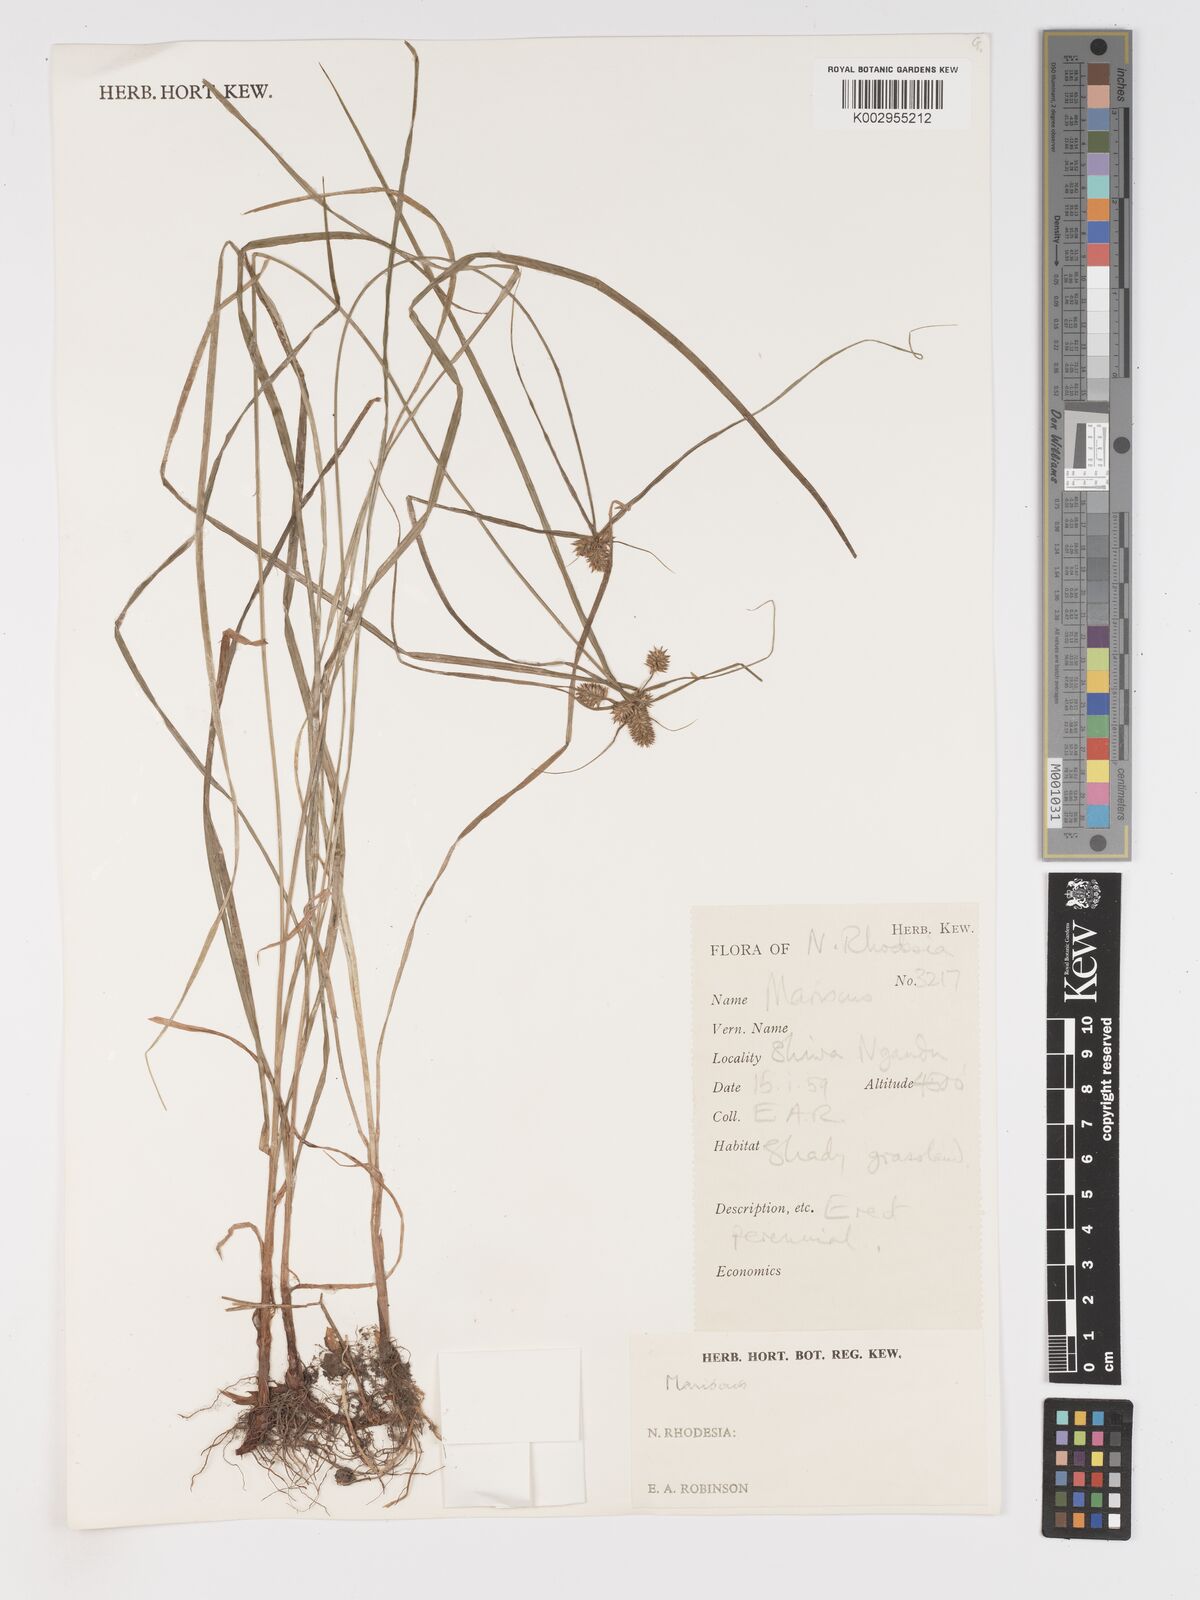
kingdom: Plantae
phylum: Tracheophyta
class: Liliopsida
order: Poales
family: Cyperaceae
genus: Cyperus
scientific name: Cyperus
